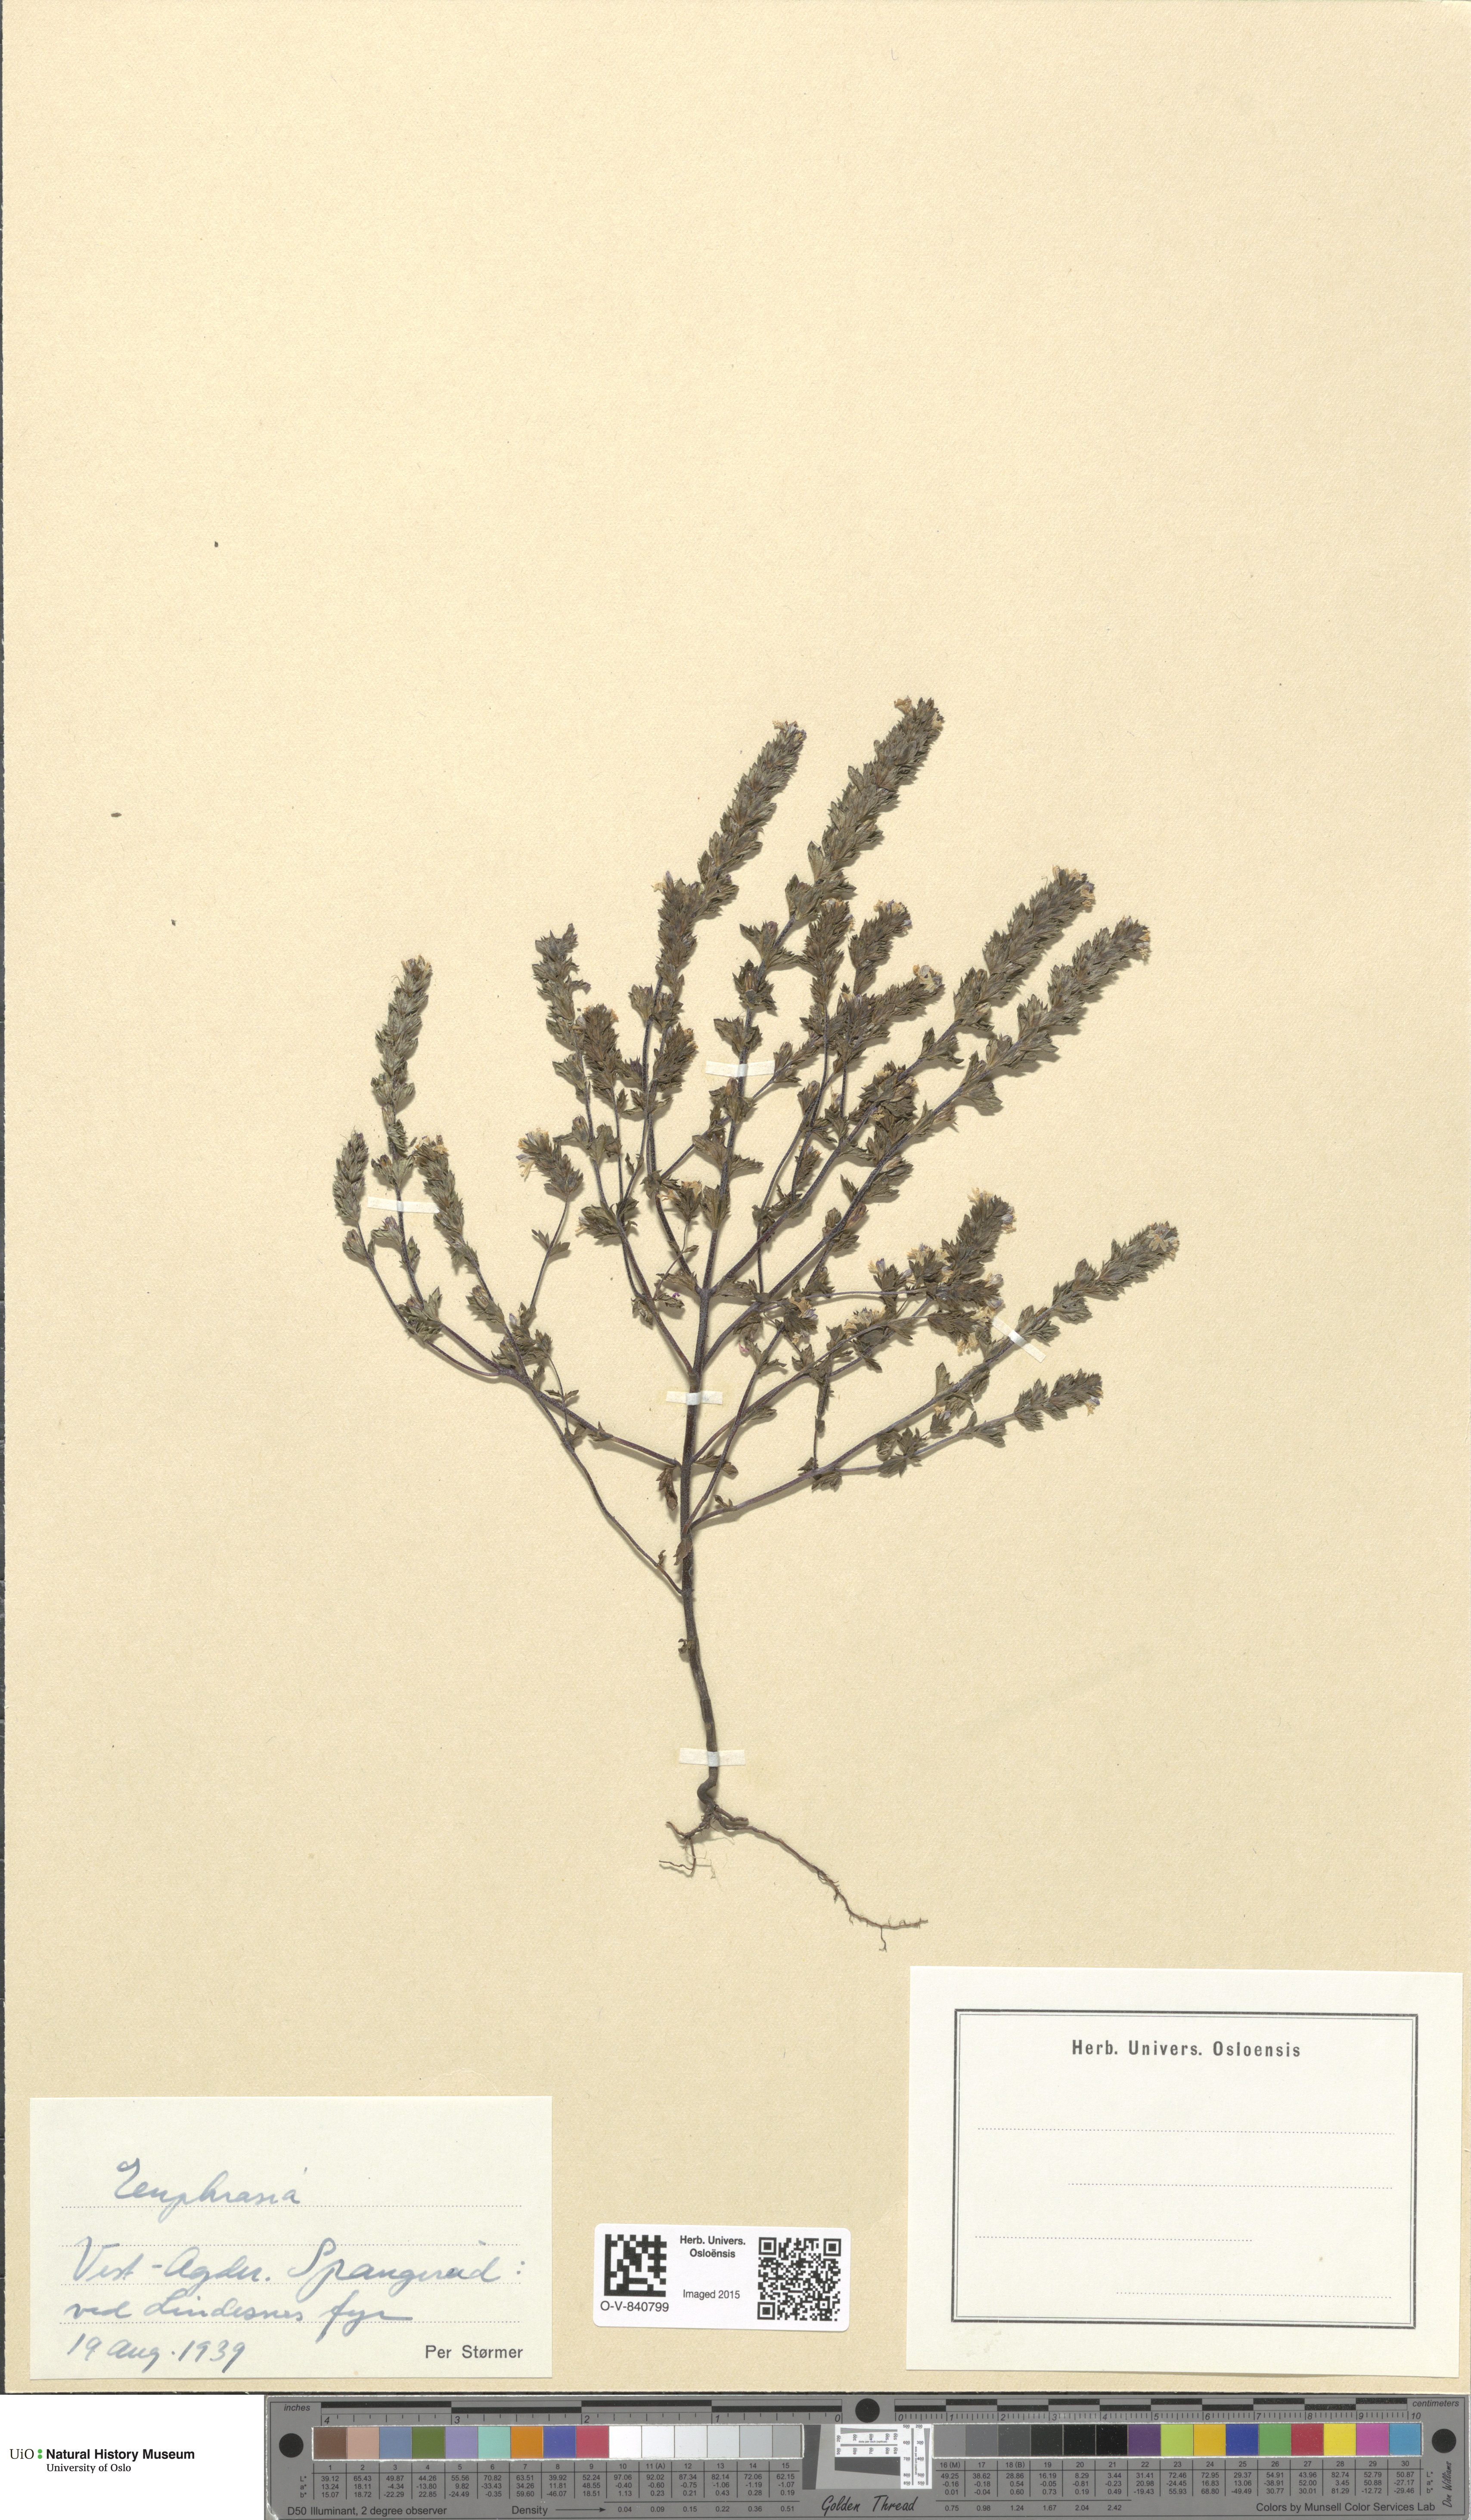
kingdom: Plantae
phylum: Tracheophyta
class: Magnoliopsida
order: Lamiales
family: Orobanchaceae
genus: Euphrasia
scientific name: Euphrasia
